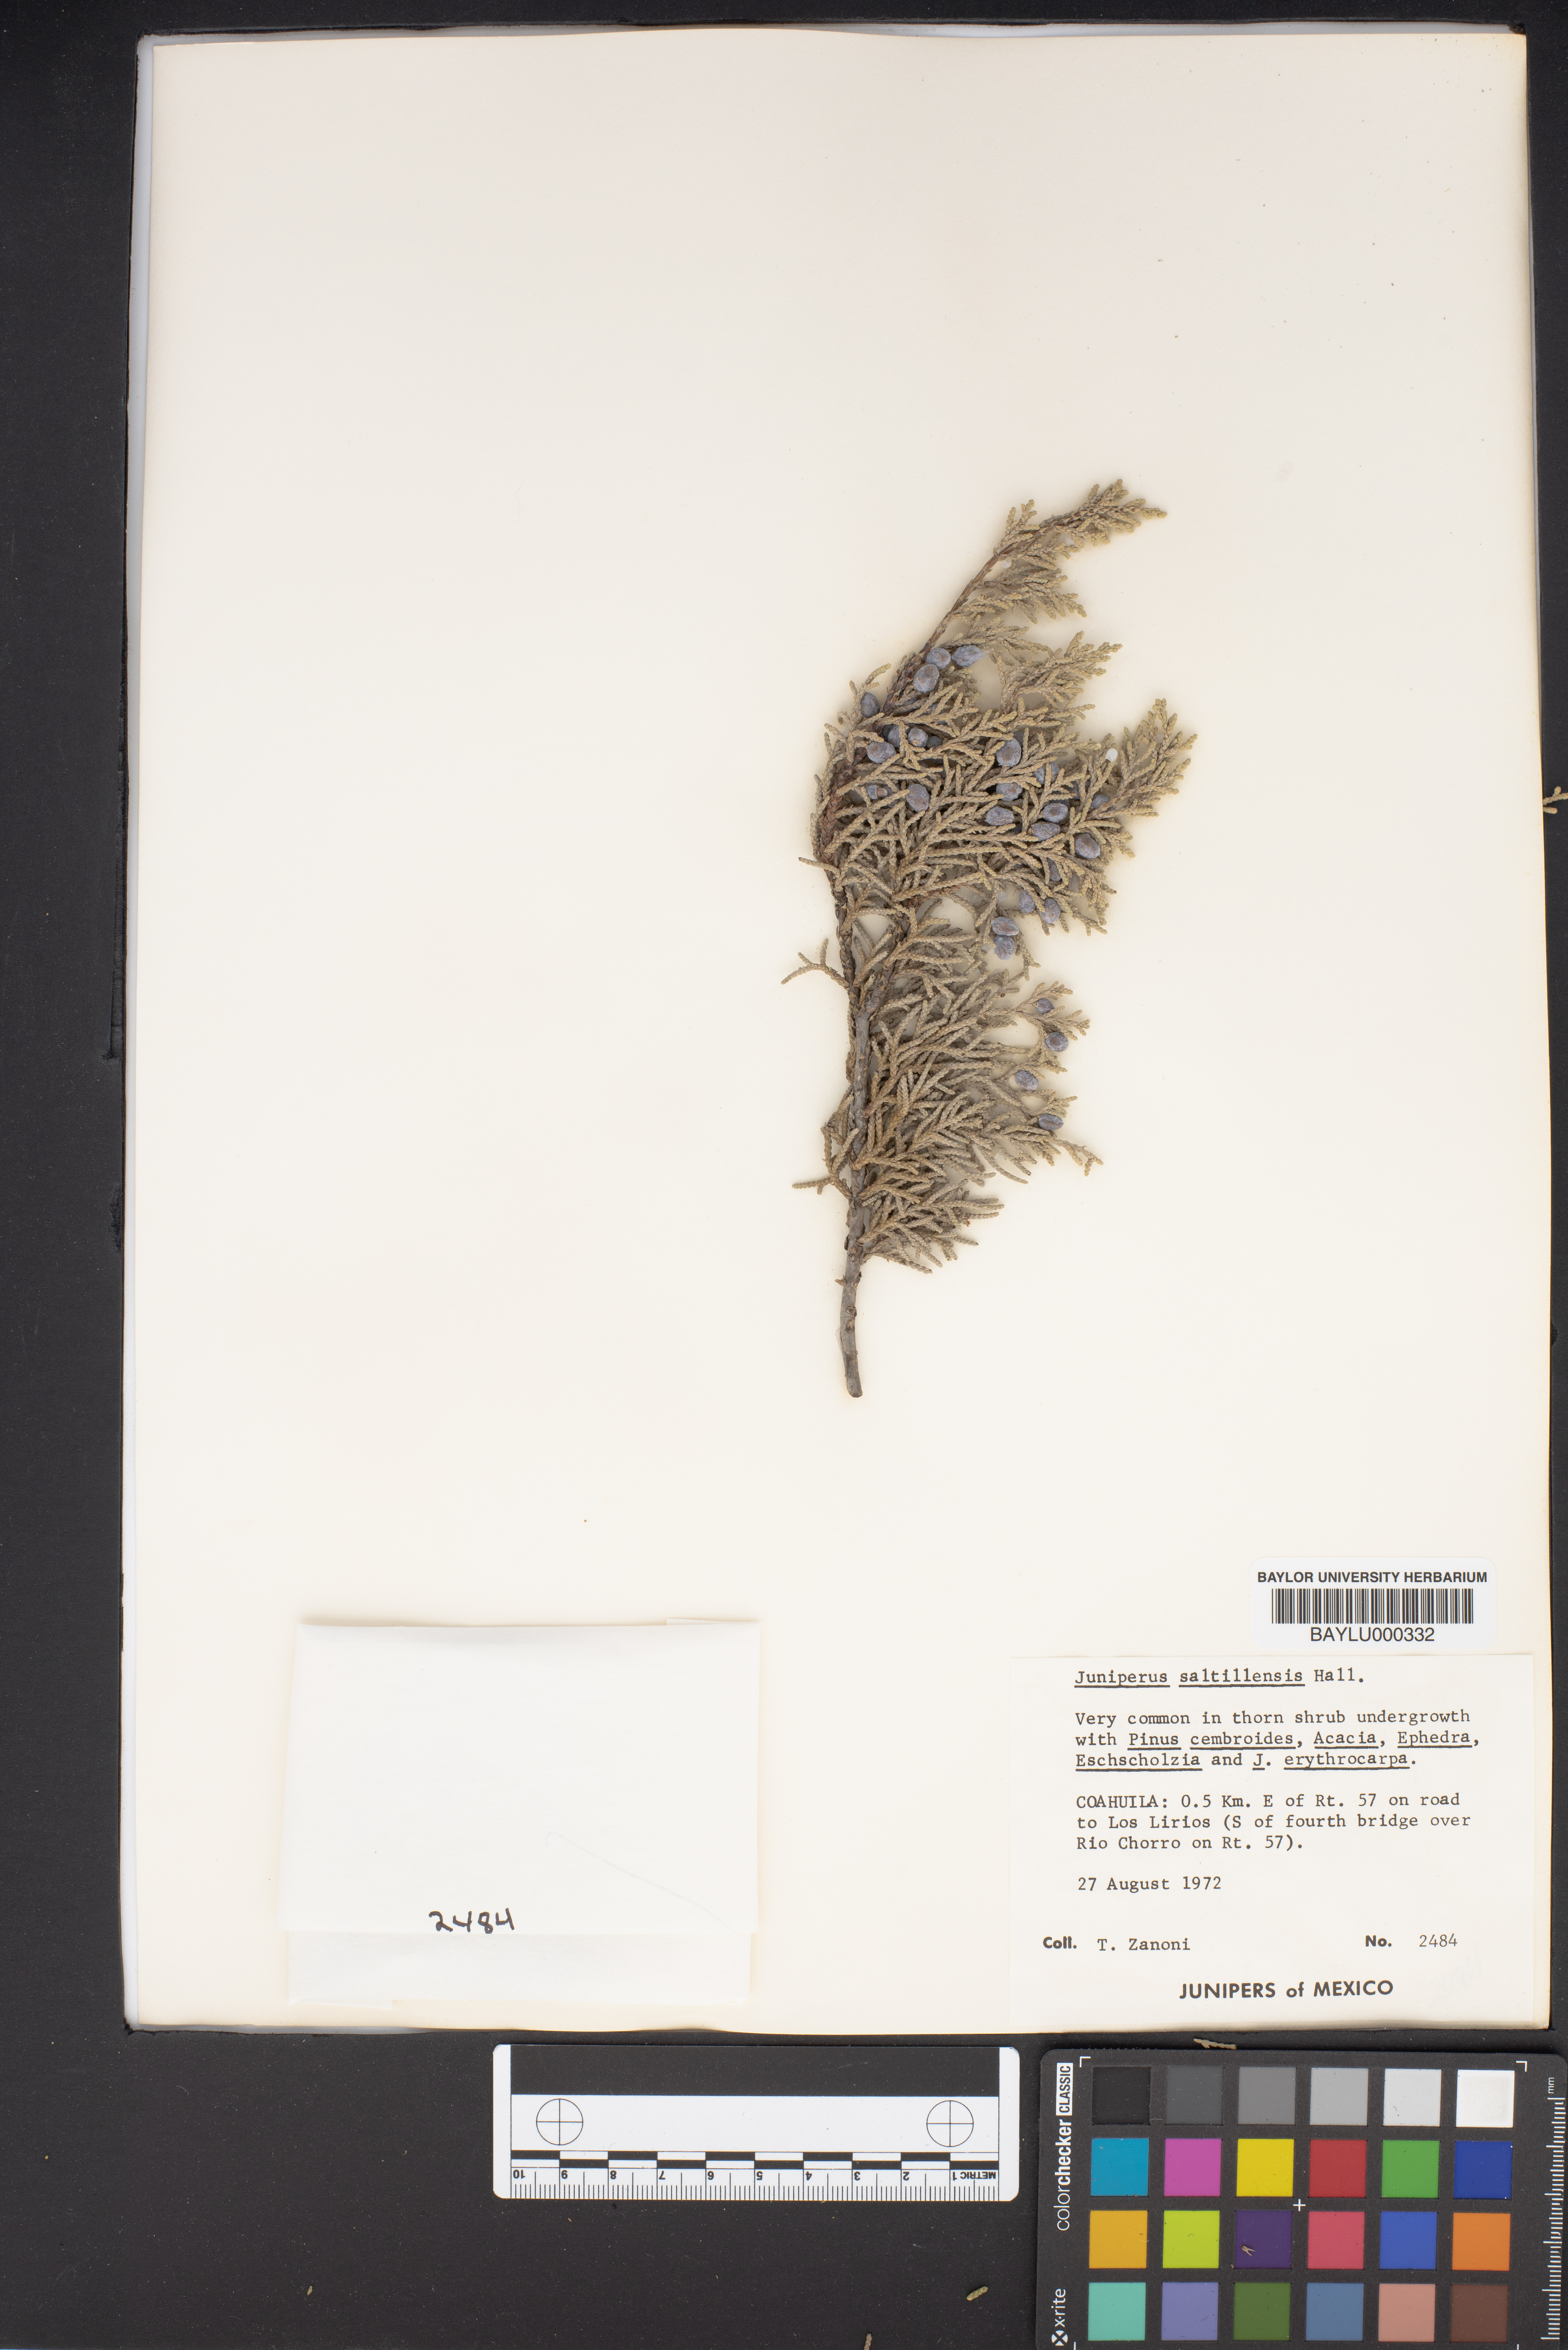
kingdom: Plantae
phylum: Tracheophyta
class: Pinopsida
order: Pinales
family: Cupressaceae
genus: Juniperus
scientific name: Juniperus saltillensis
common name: Saltillo juniper
